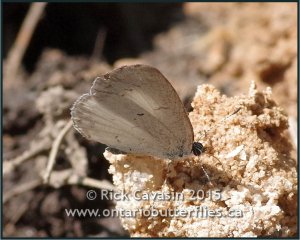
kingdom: Animalia
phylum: Arthropoda
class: Insecta
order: Lepidoptera
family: Lycaenidae
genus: Cyaniris
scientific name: Cyaniris neglecta
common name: Summer Azure
